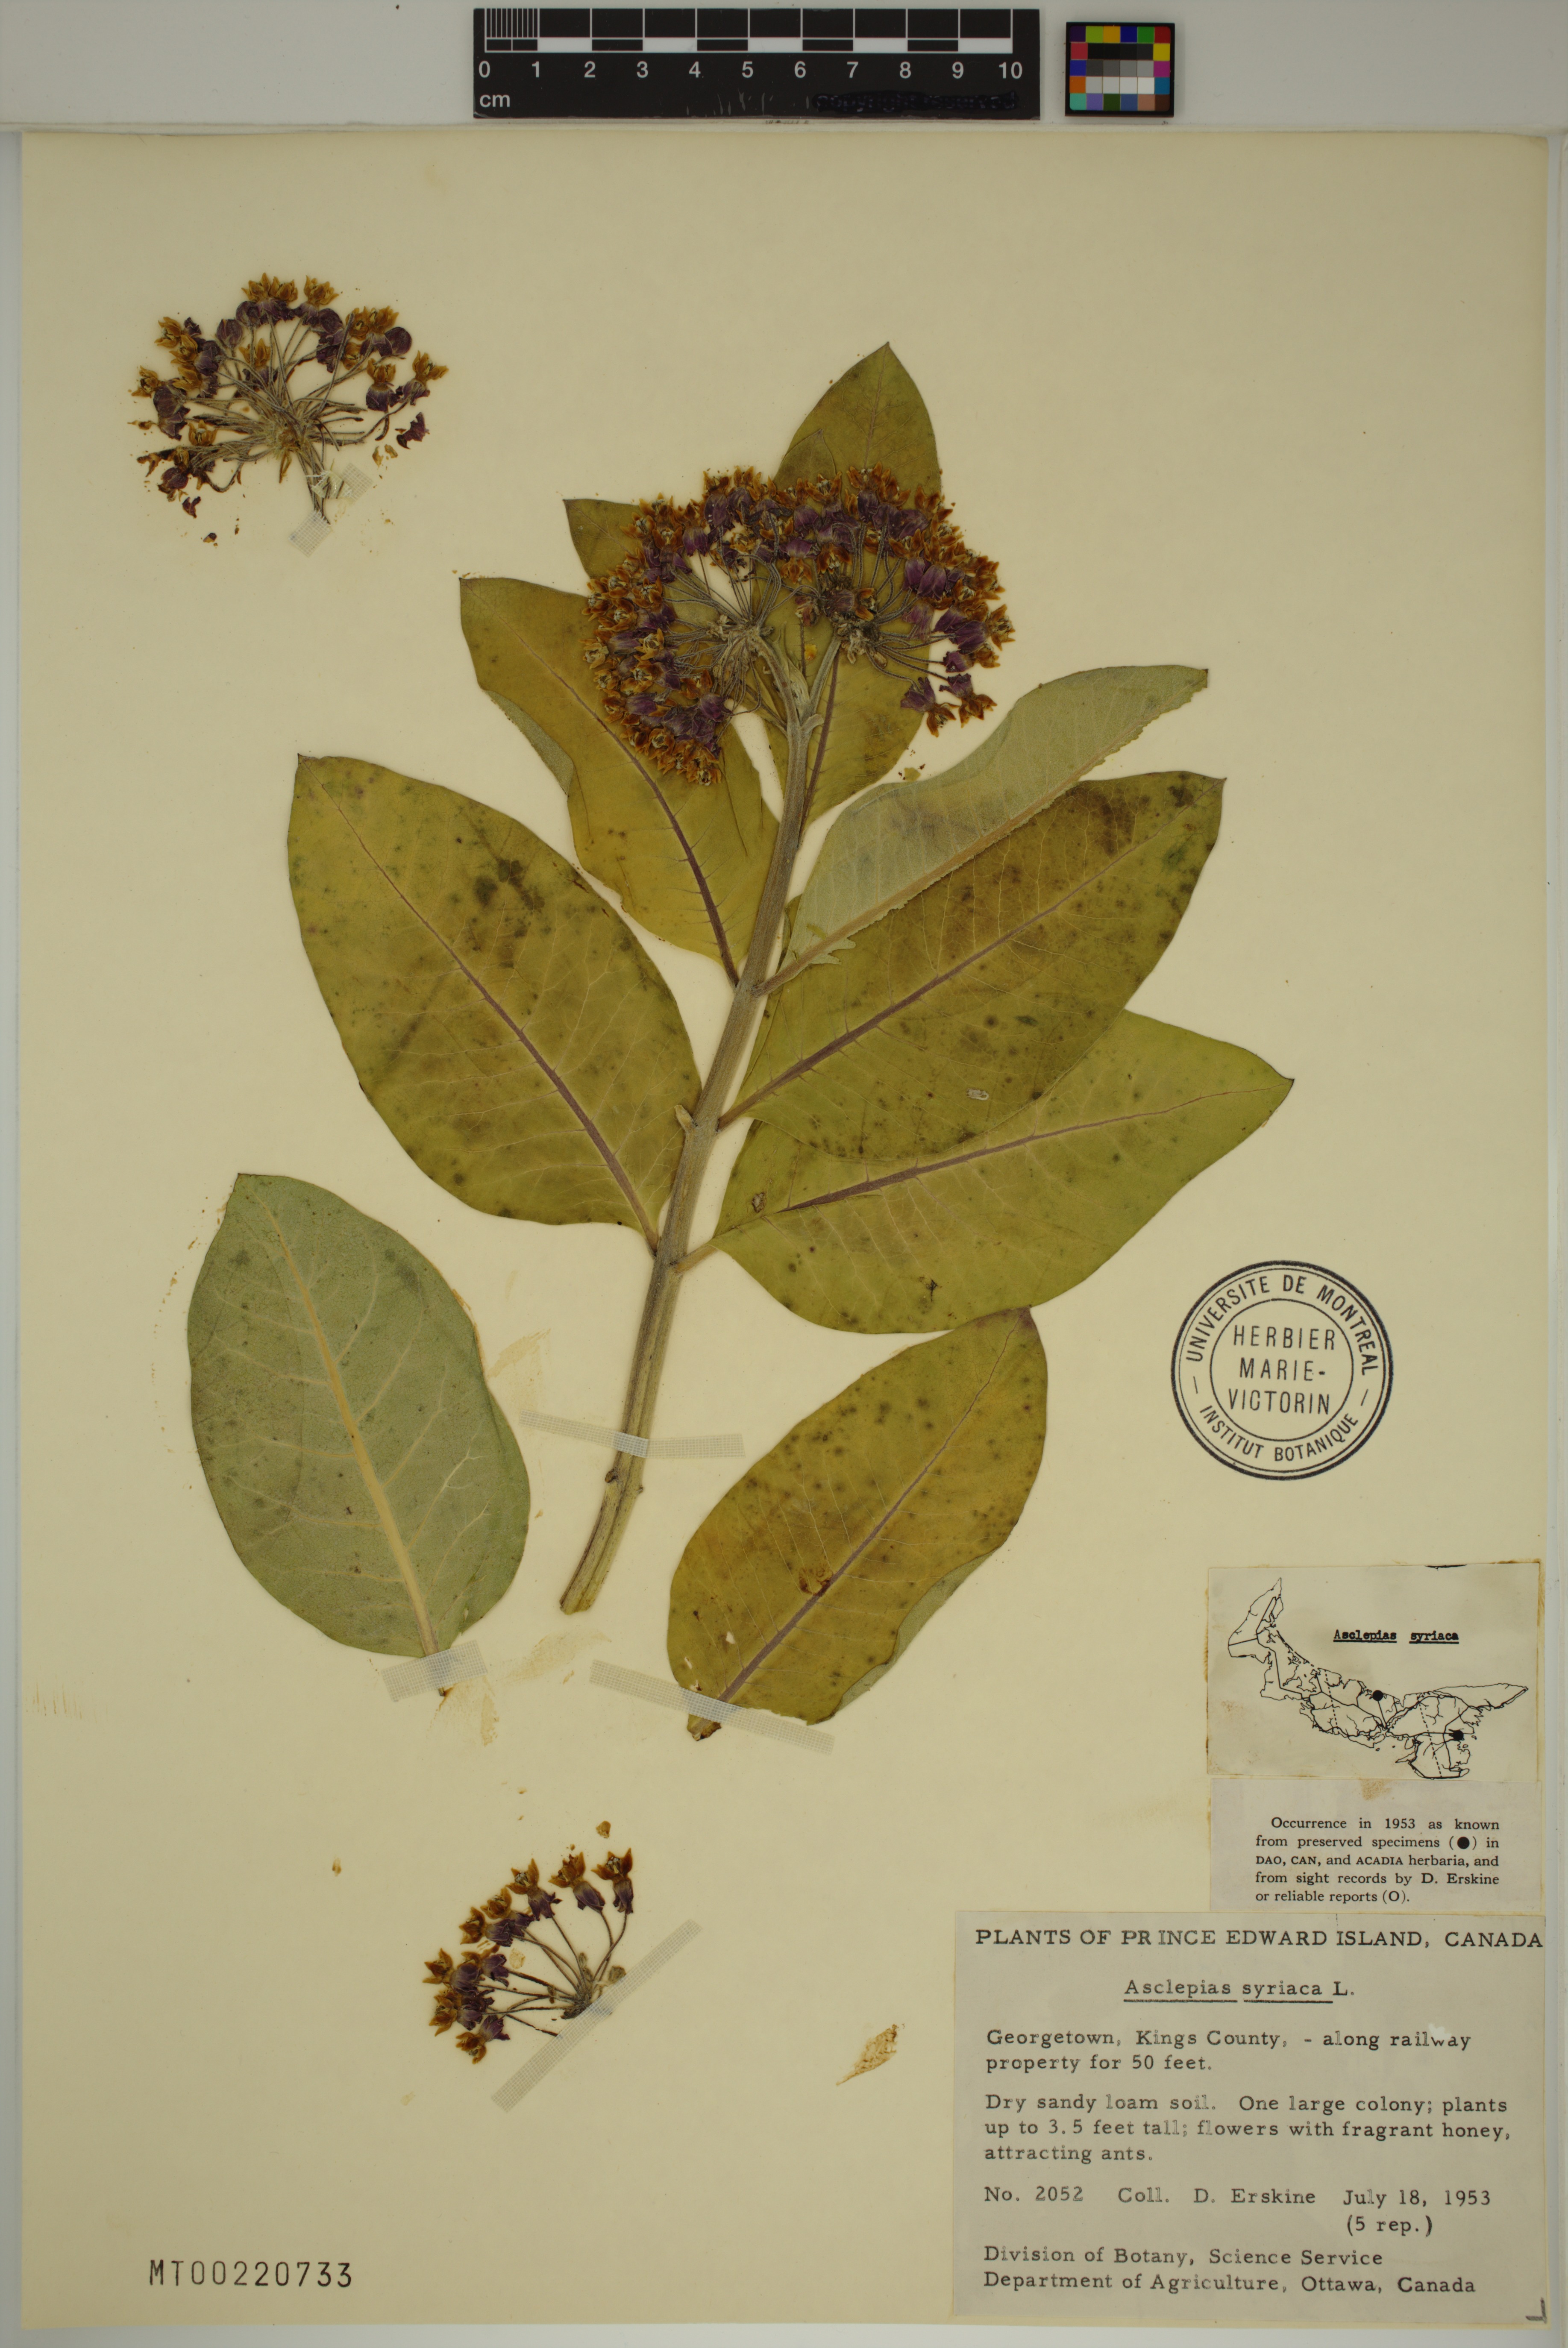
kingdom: Plantae
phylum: Tracheophyta
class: Magnoliopsida
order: Gentianales
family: Apocynaceae
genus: Asclepias
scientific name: Asclepias syriaca
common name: Common milkweed
